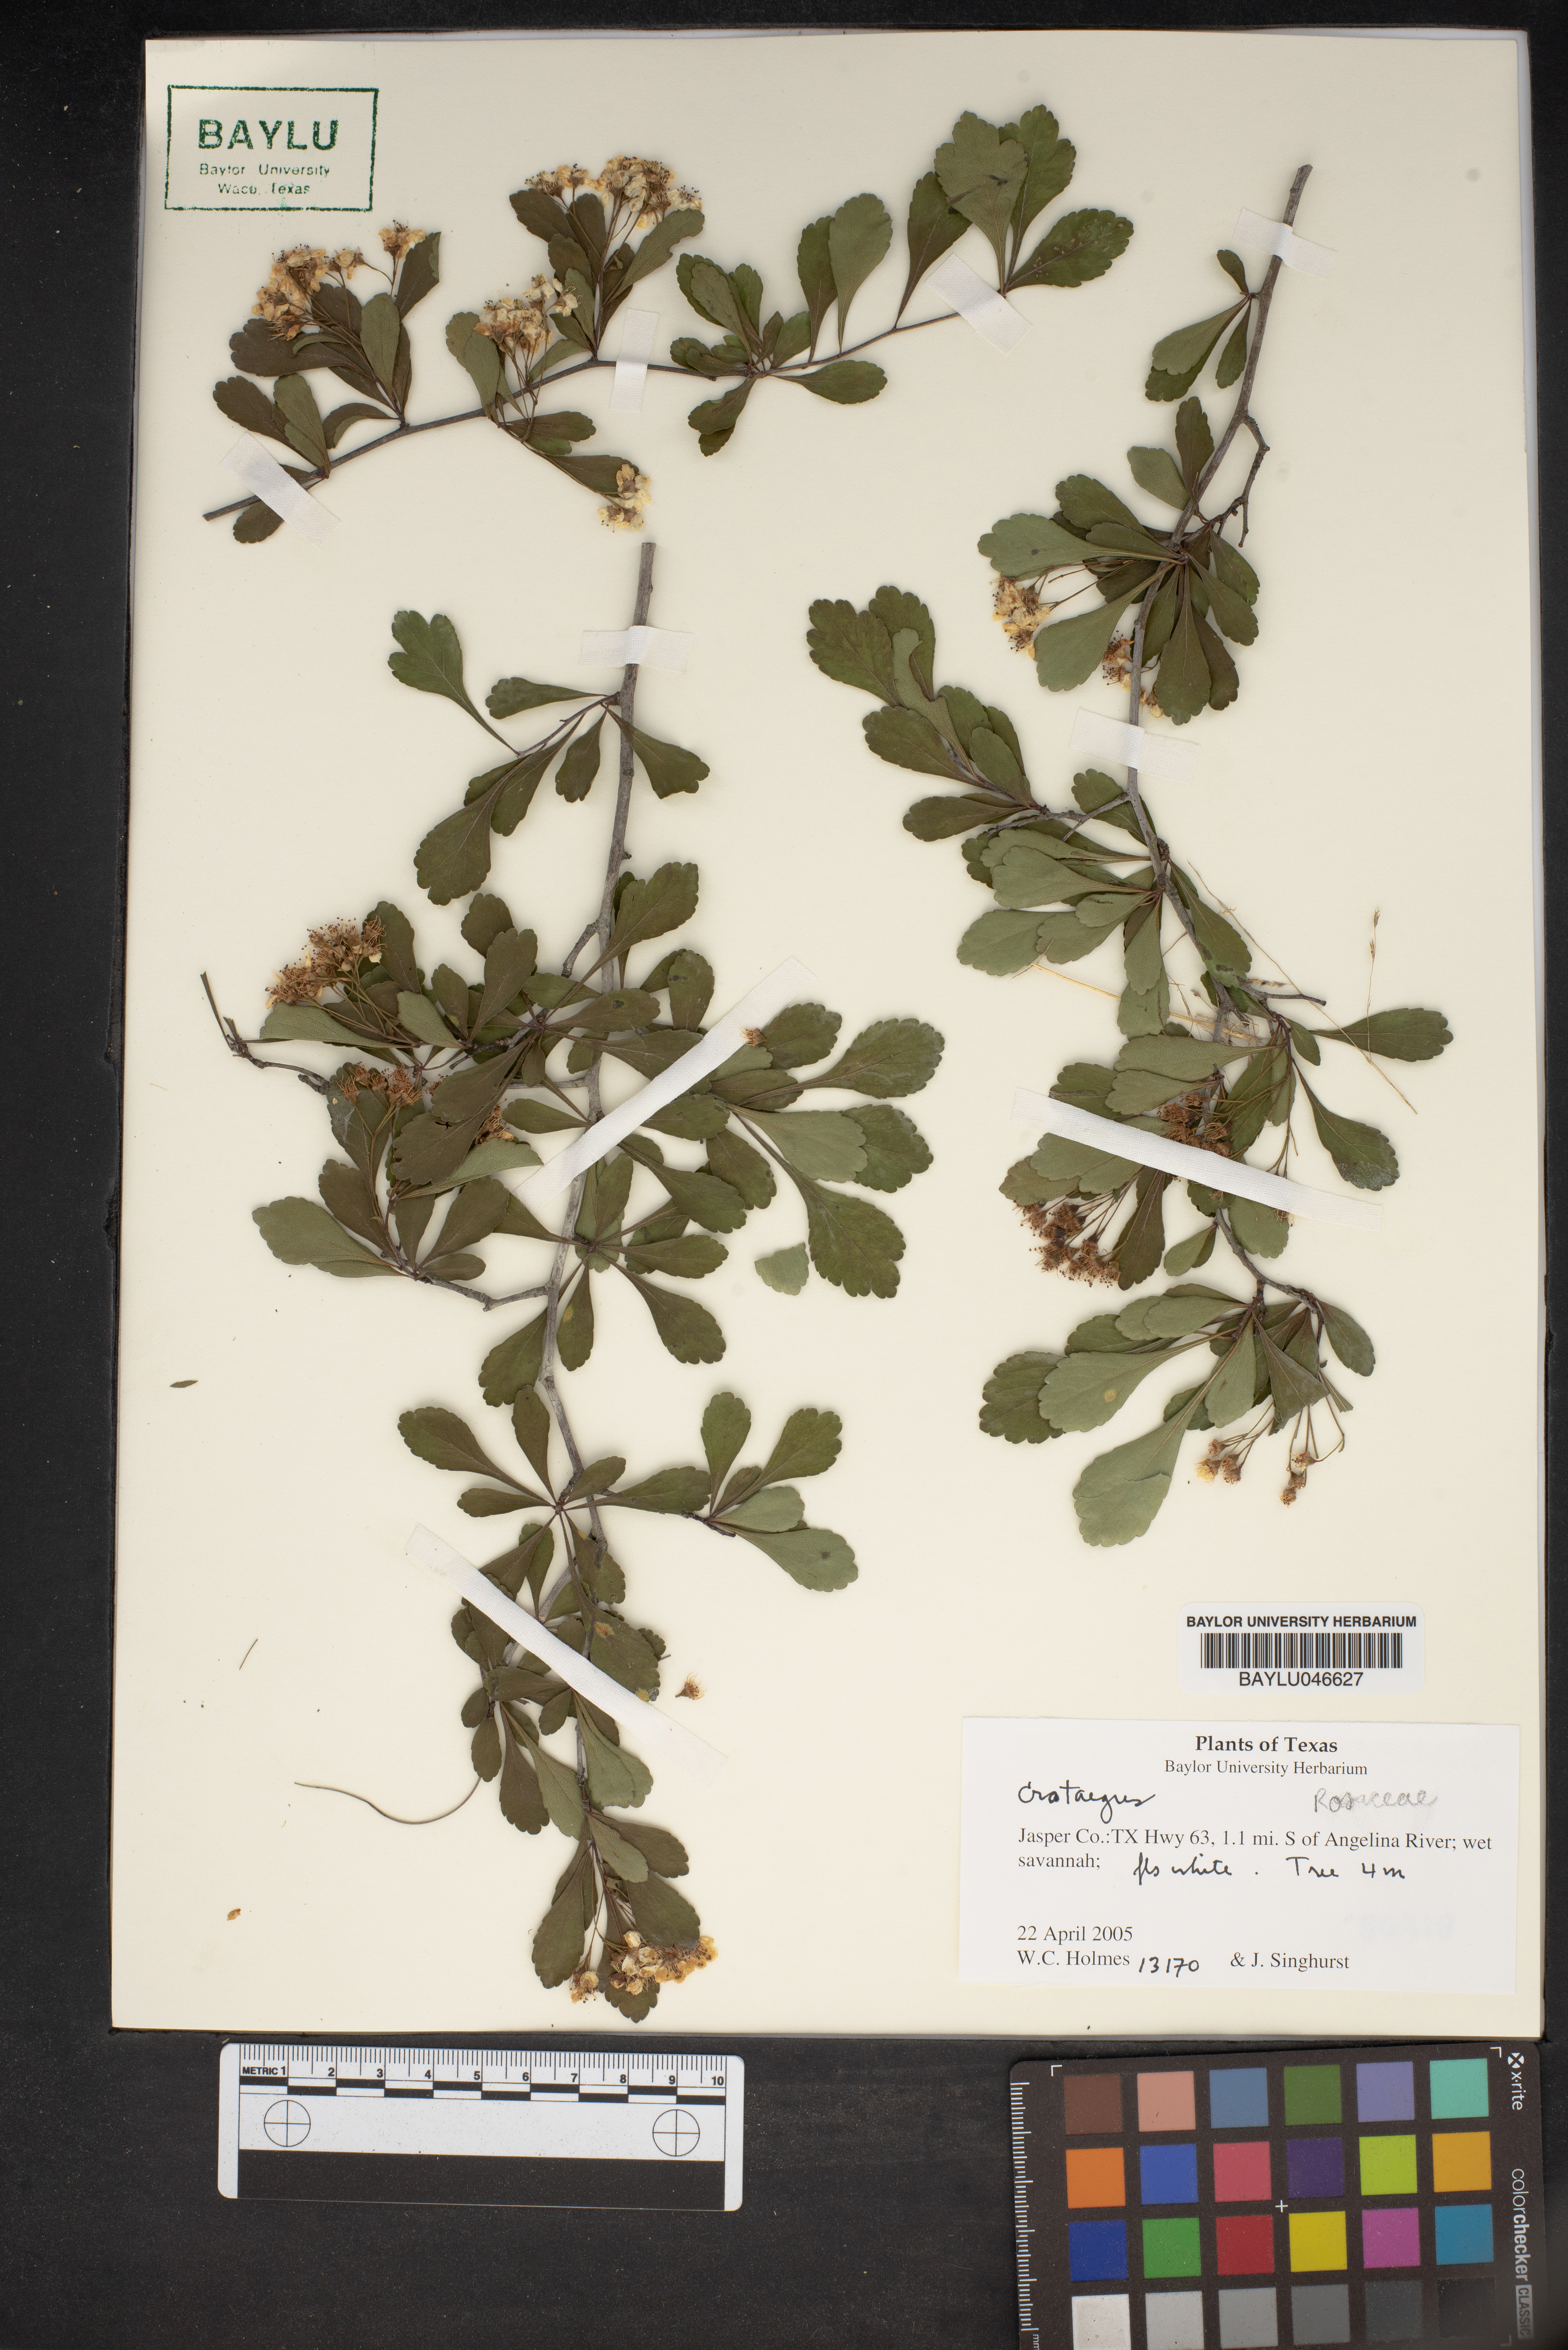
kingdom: Plantae
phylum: Tracheophyta
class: Magnoliopsida
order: Rosales
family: Rosaceae
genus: Crataegus
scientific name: Crataegus
